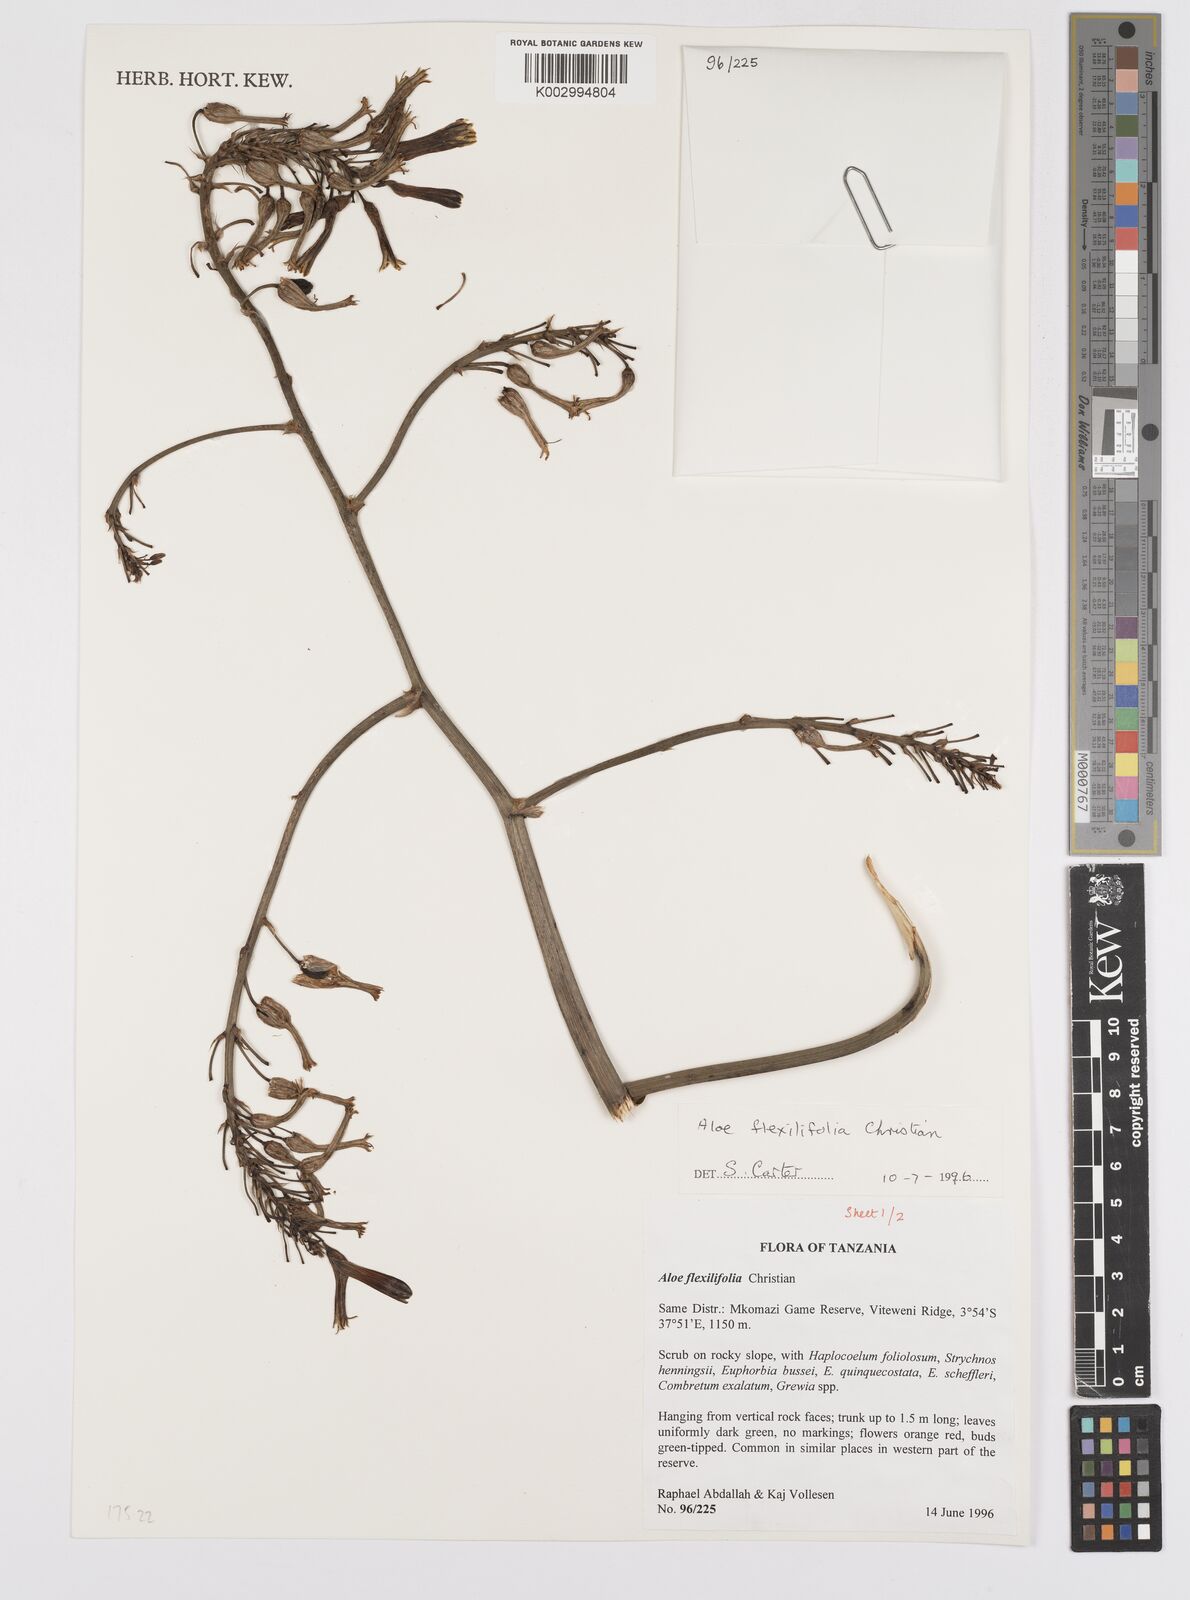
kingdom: Plantae
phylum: Tracheophyta
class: Liliopsida
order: Asparagales
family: Asphodelaceae
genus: Aloe
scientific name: Aloe flexilifolia
